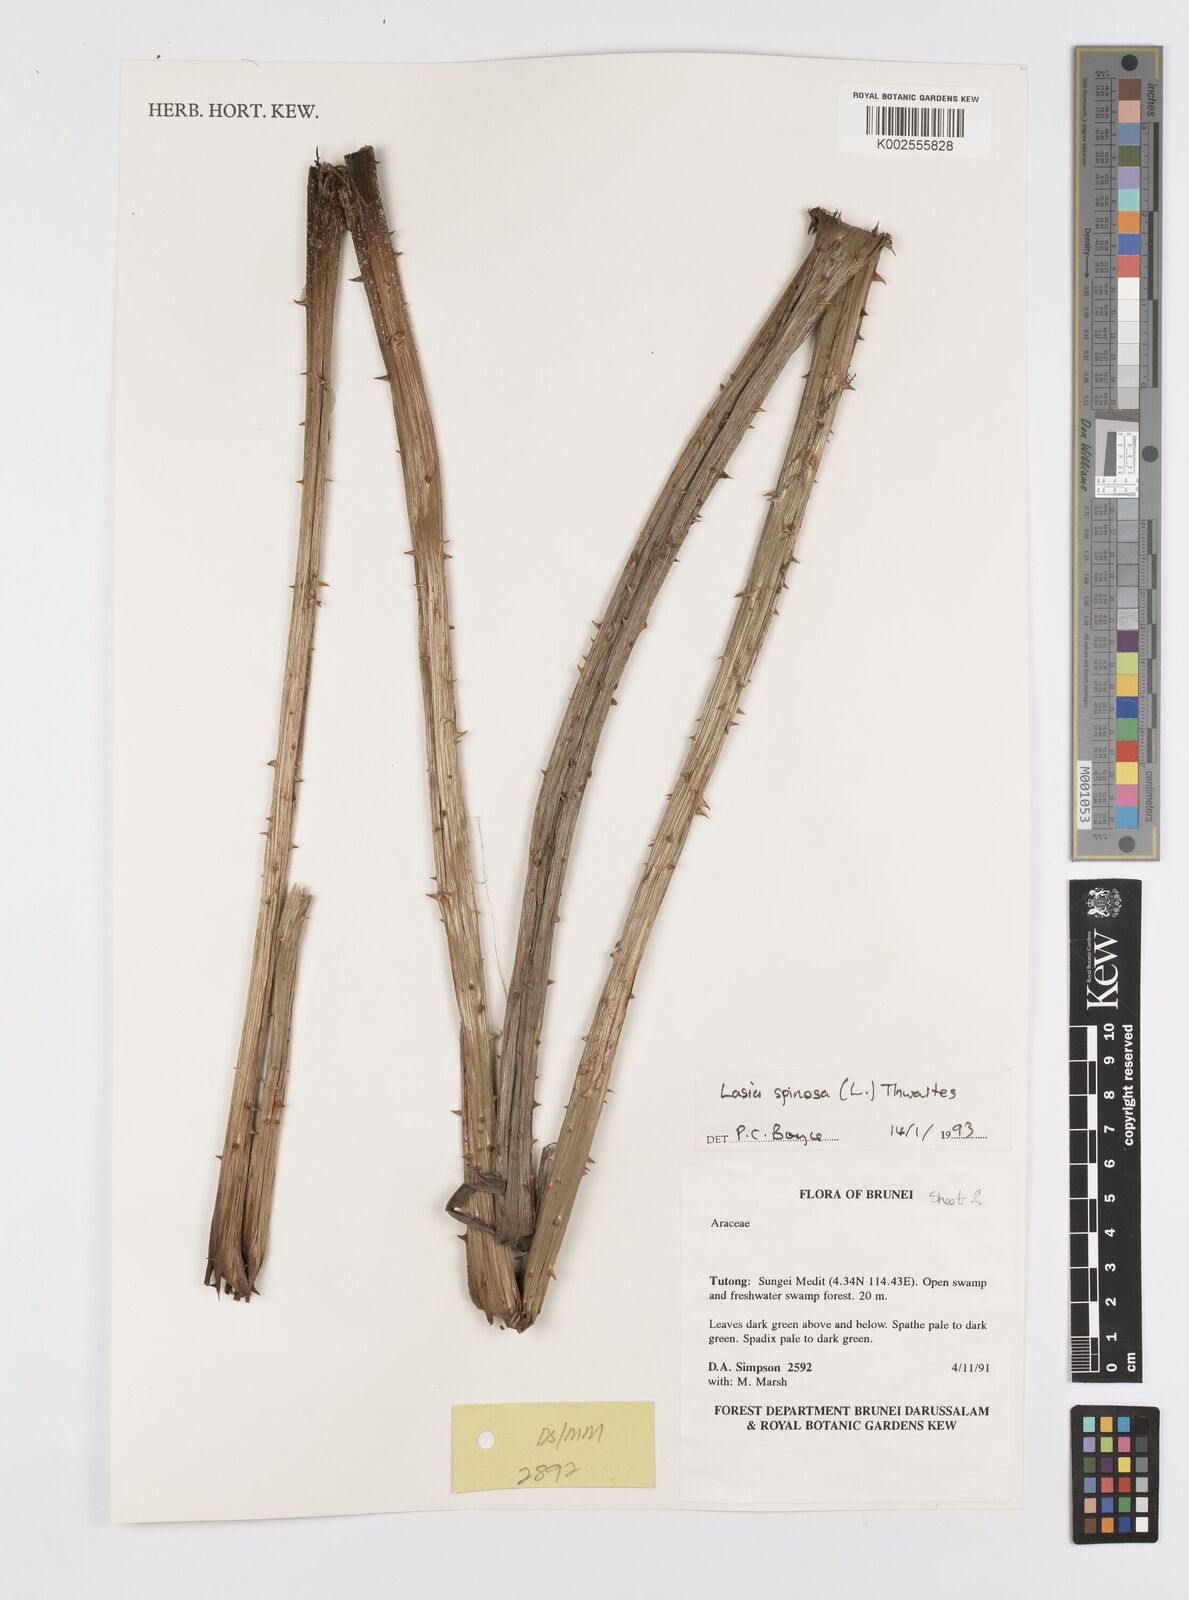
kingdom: Plantae
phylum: Tracheophyta
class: Liliopsida
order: Alismatales
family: Araceae
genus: Lasia
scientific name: Lasia spinosa
